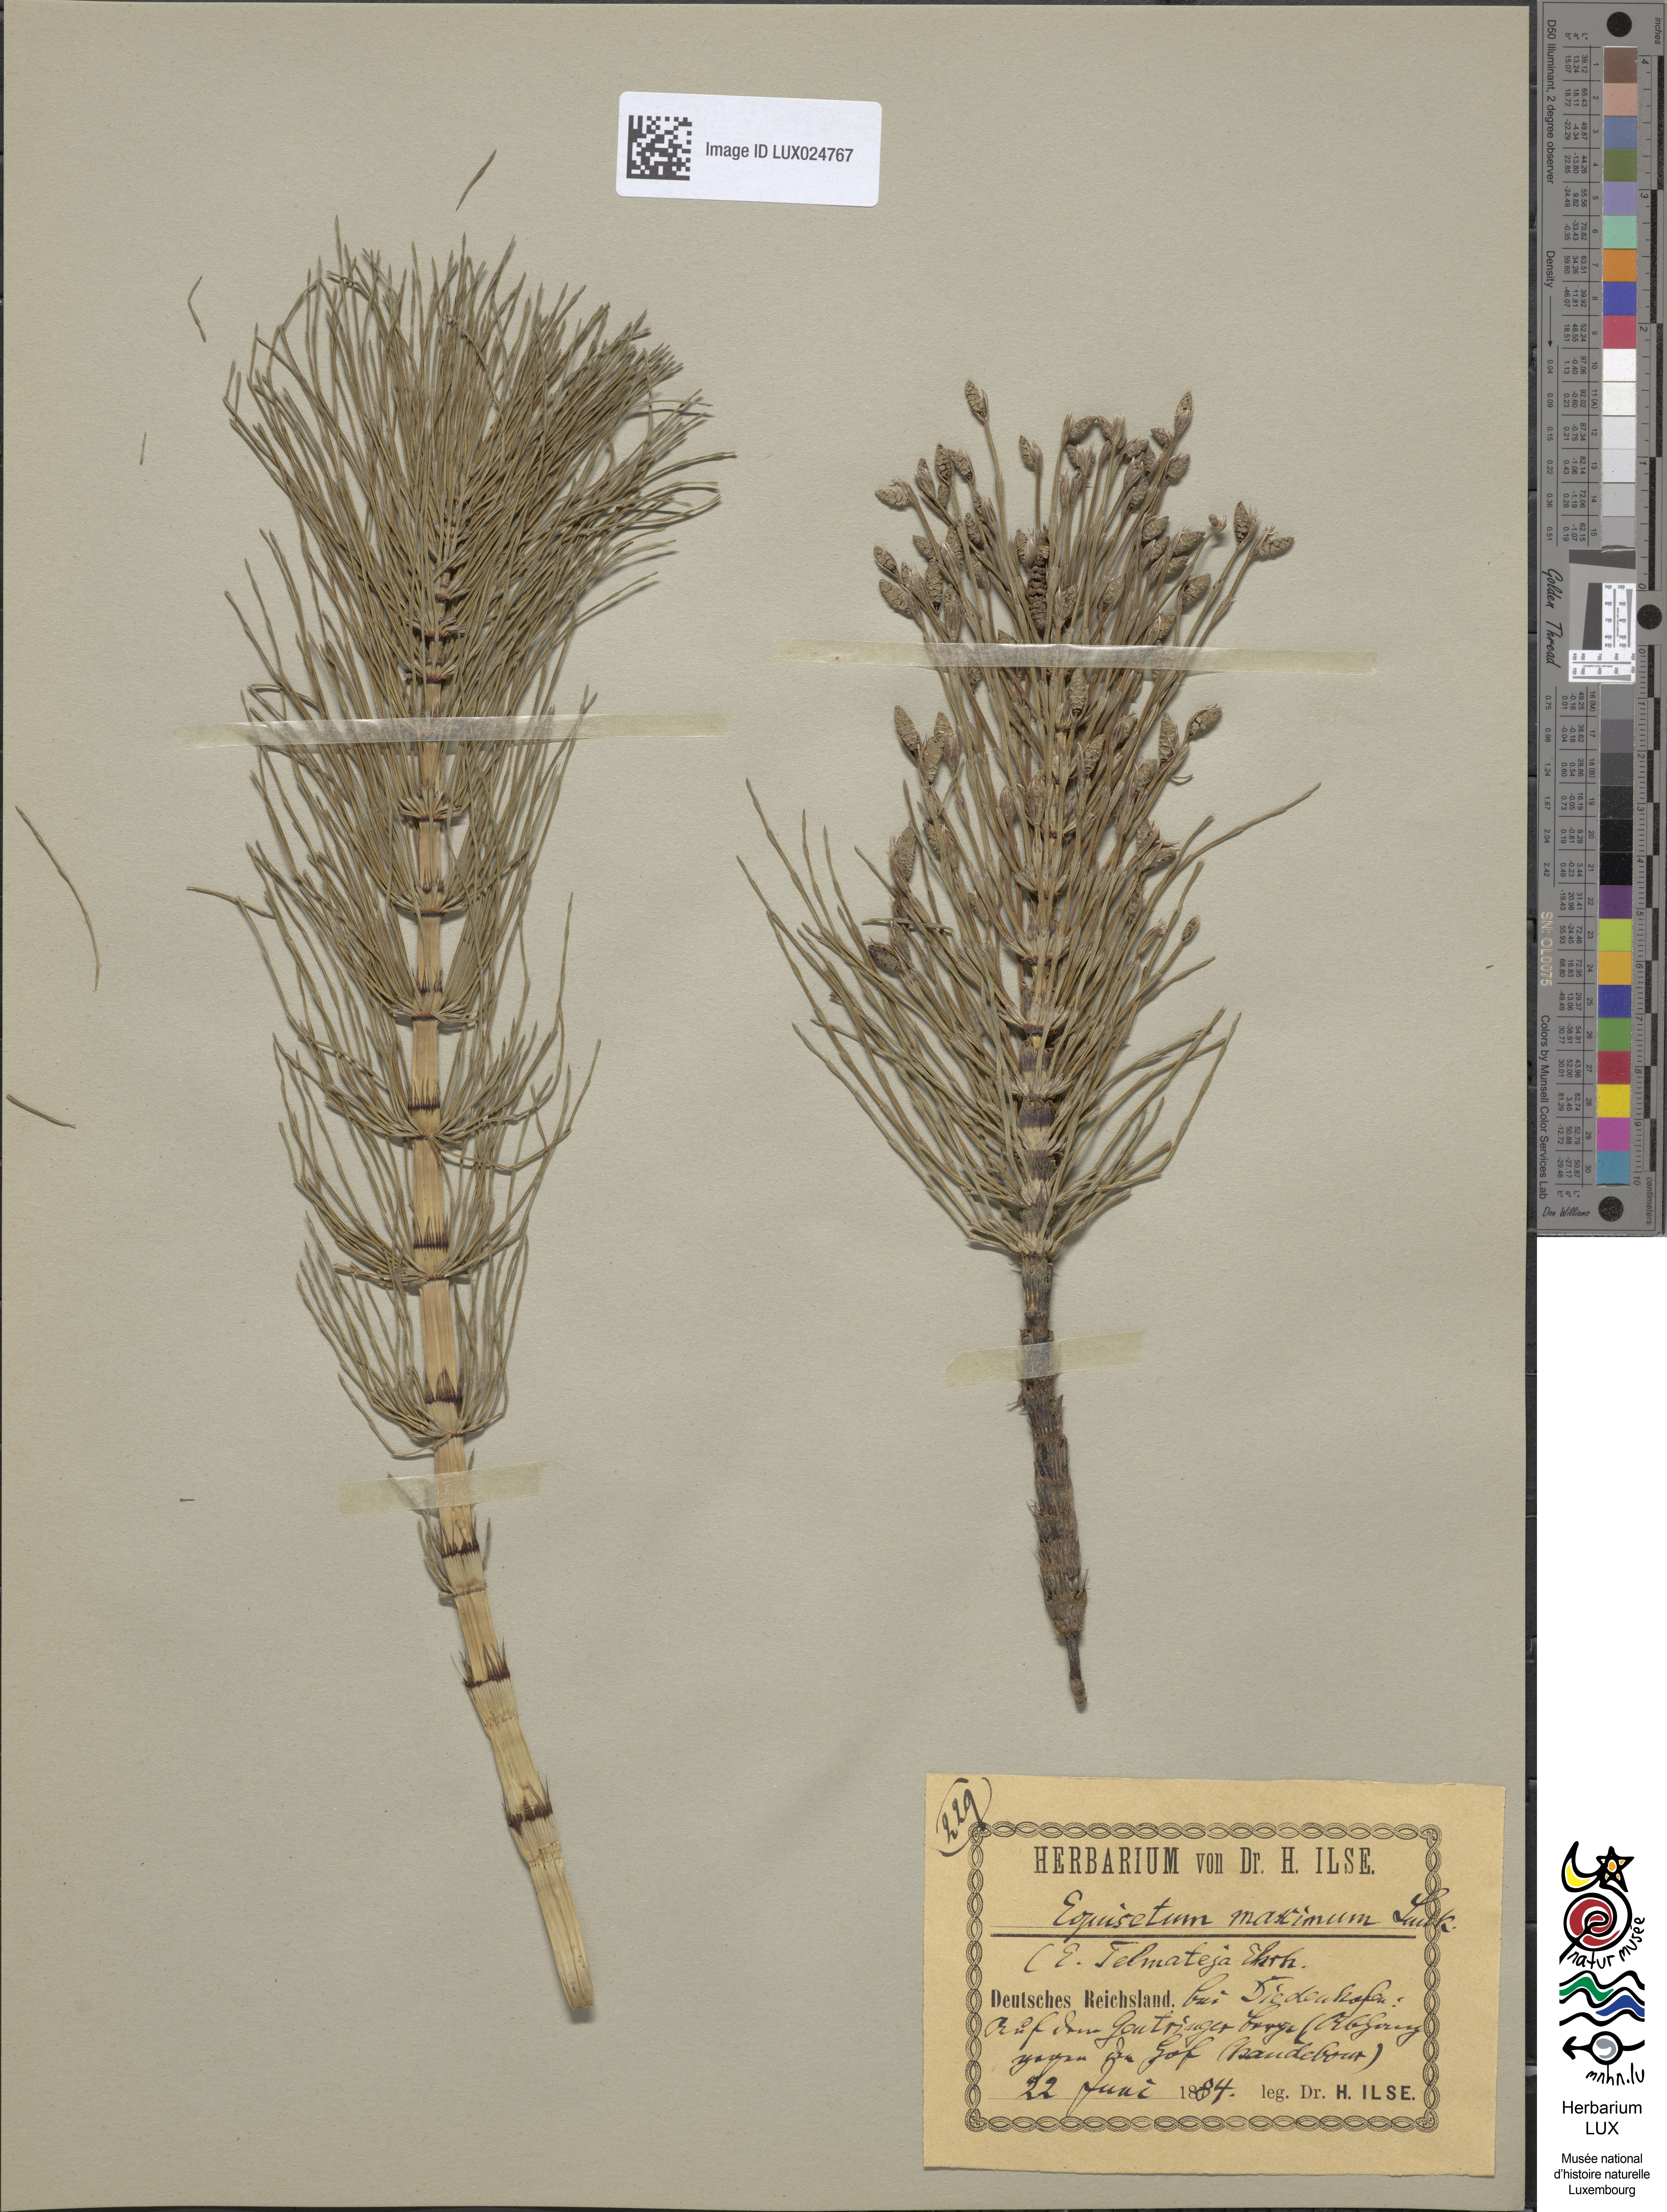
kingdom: Plantae
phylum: Tracheophyta
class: Polypodiopsida
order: Equisetales
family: Equisetaceae
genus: Equisetum
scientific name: Equisetum telmateia
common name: Great horsetail
